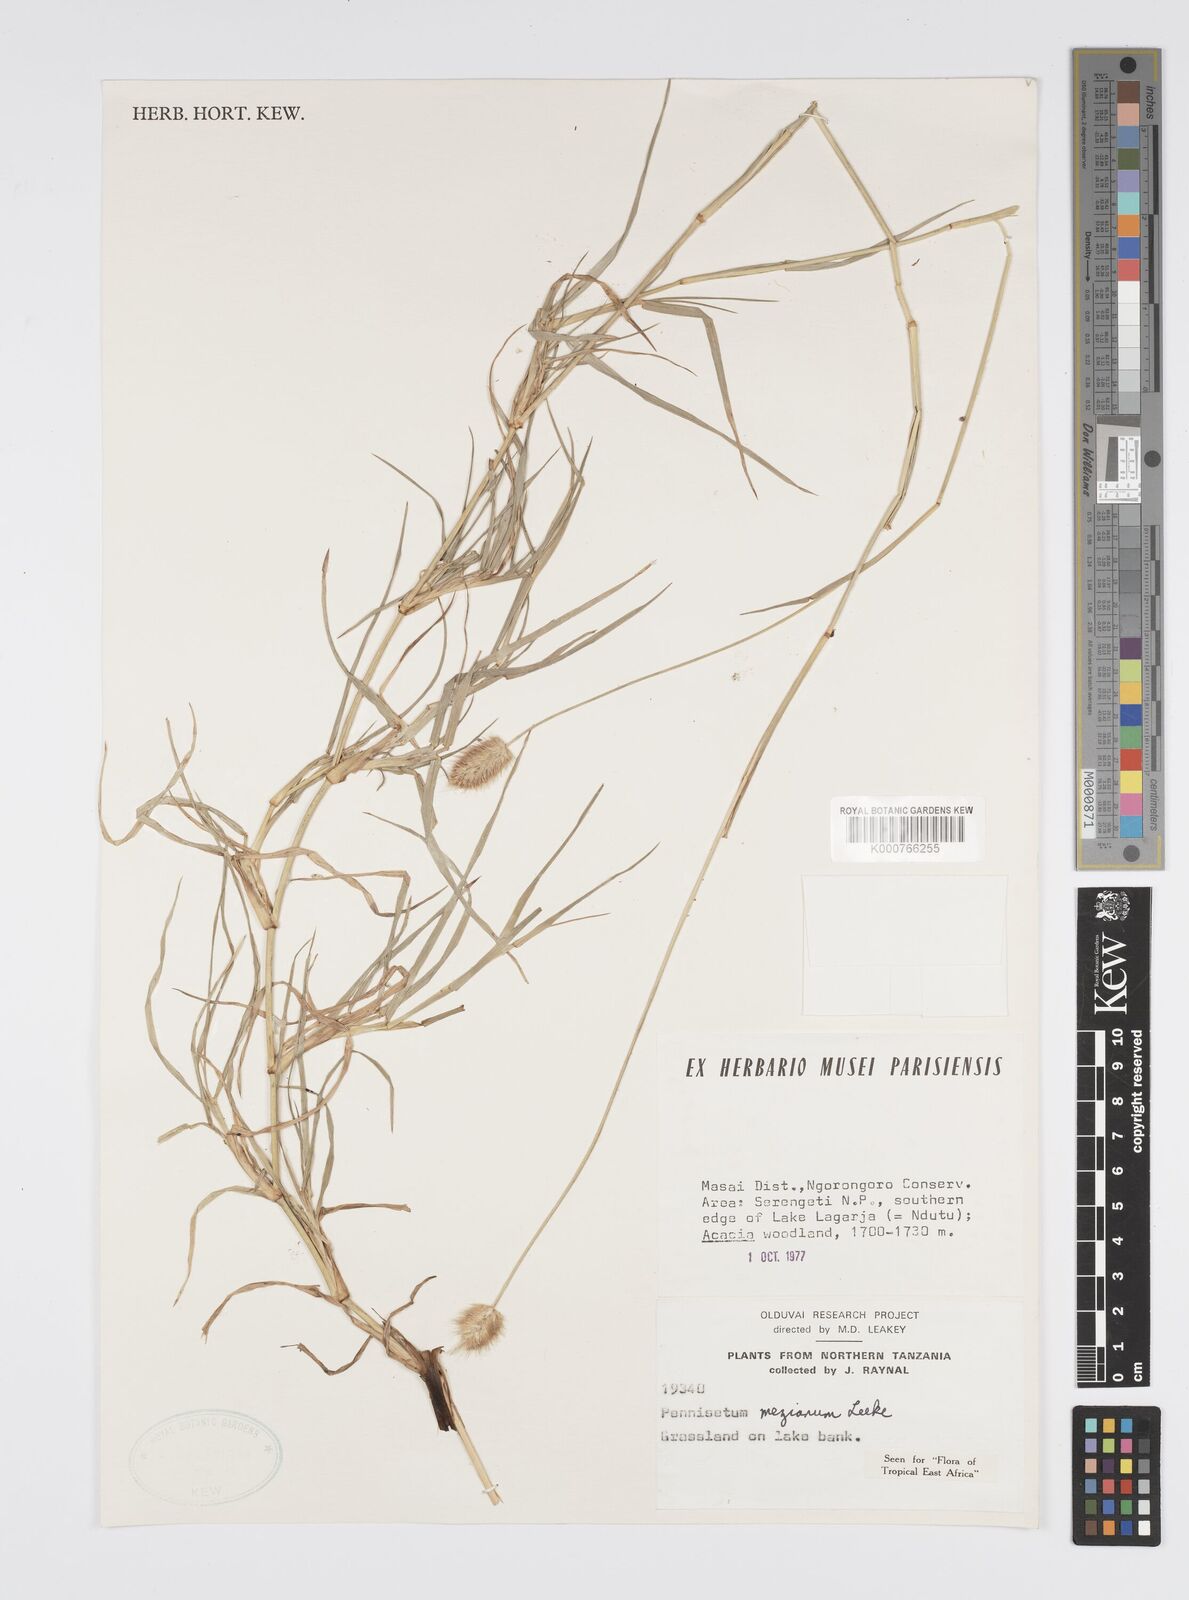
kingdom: Plantae
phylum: Tracheophyta
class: Liliopsida
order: Poales
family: Poaceae
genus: Cenchrus
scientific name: Cenchrus mezianus
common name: Bamboo grass
